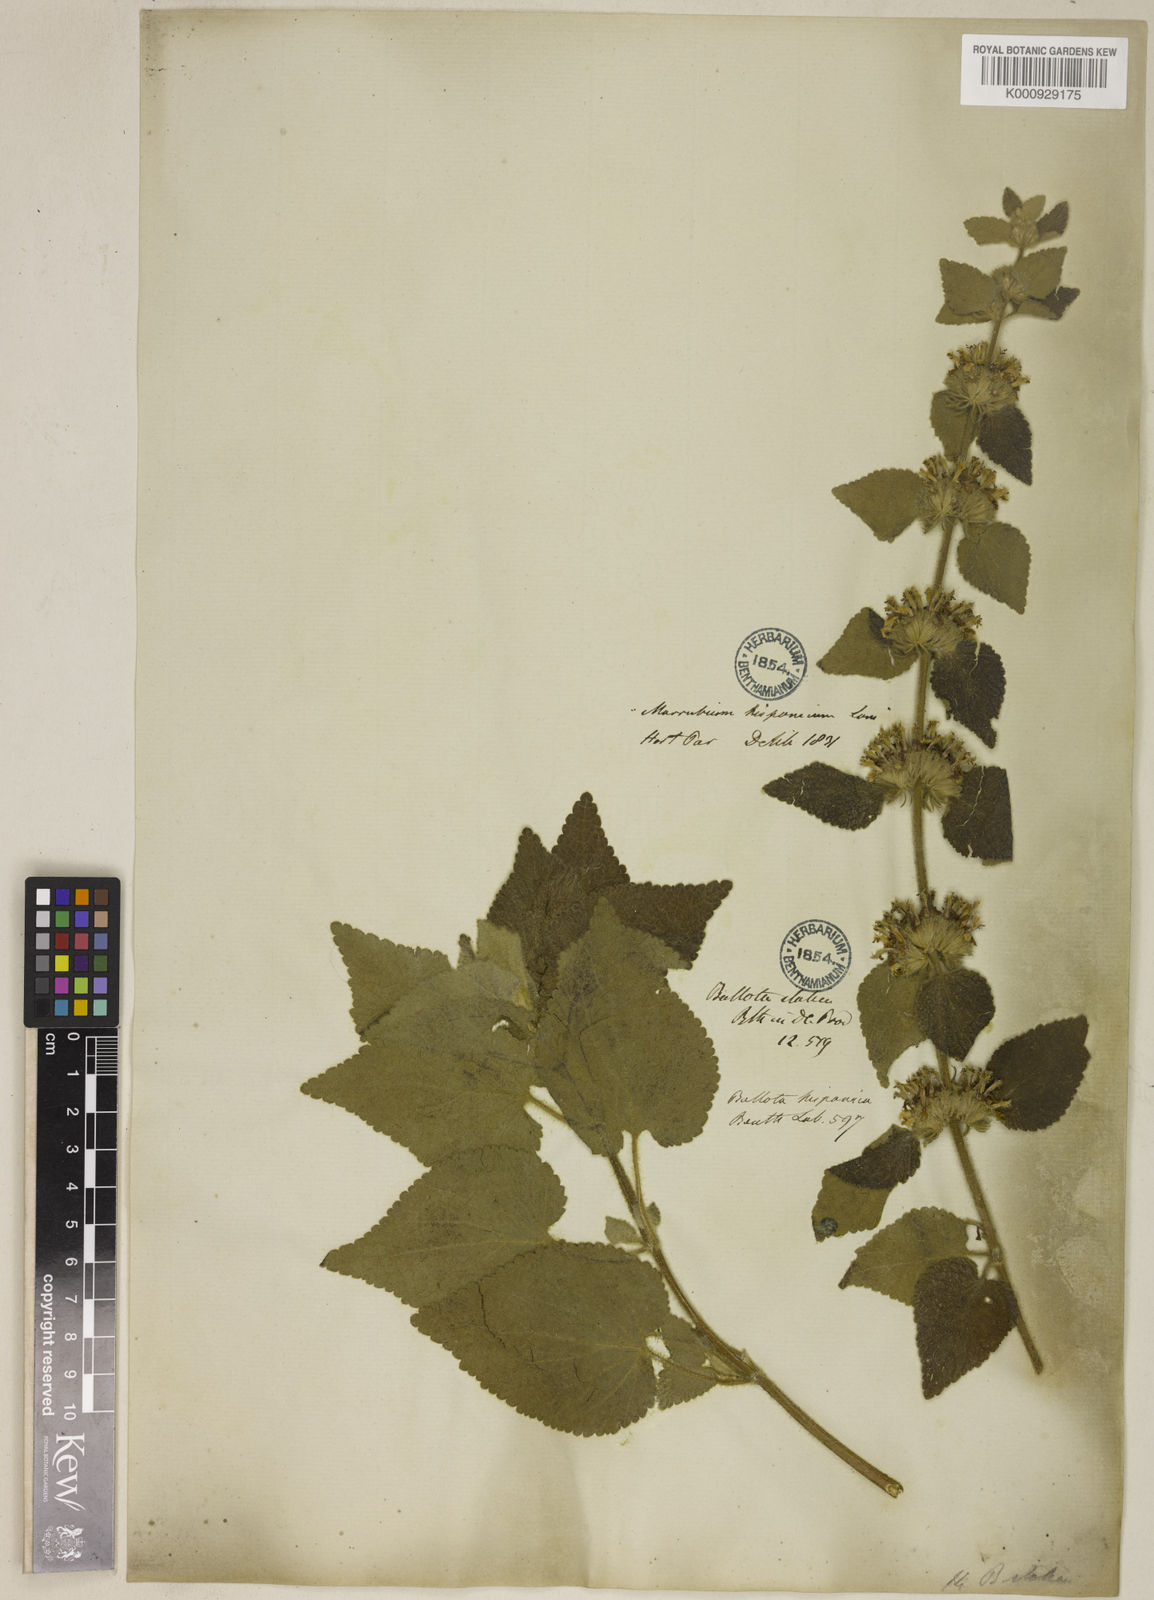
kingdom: Plantae
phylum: Tracheophyta
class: Magnoliopsida
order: Lamiales
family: Lamiaceae
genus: Pseudodictamnus
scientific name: Pseudodictamnus hispanicus
